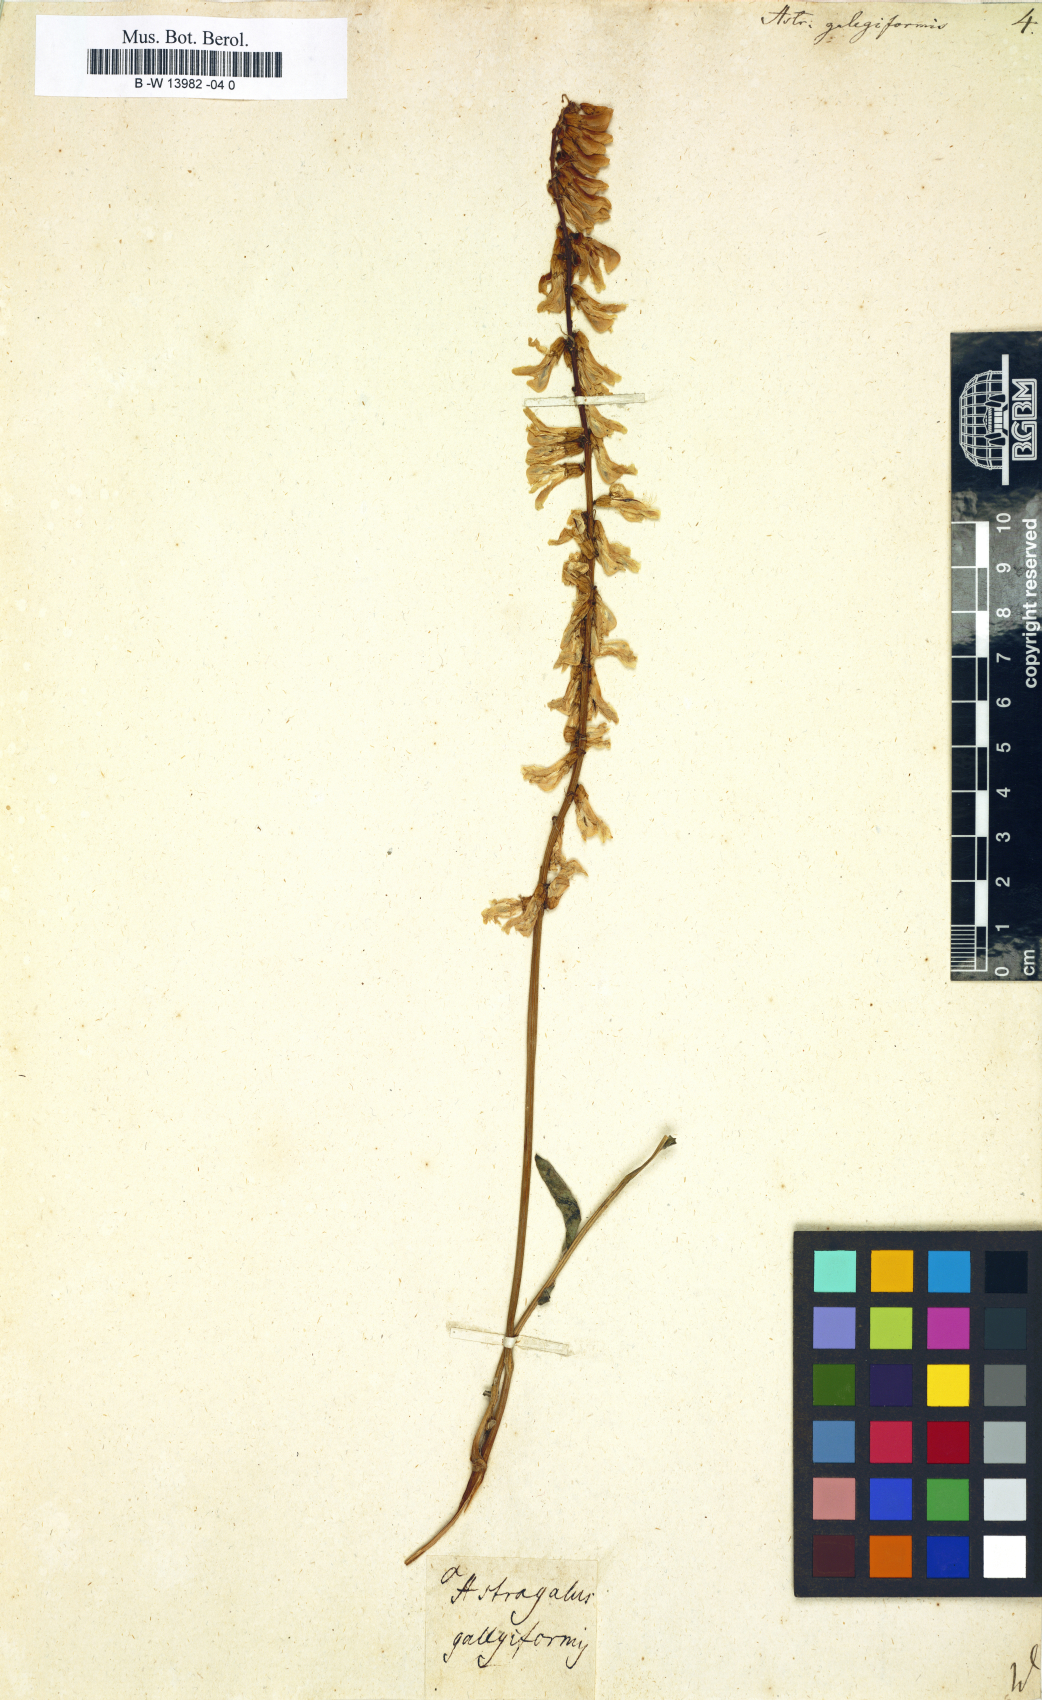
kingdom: Plantae
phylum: Tracheophyta
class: Magnoliopsida
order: Fabales
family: Fabaceae
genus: Astragalus
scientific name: Astragalus galegiformis
